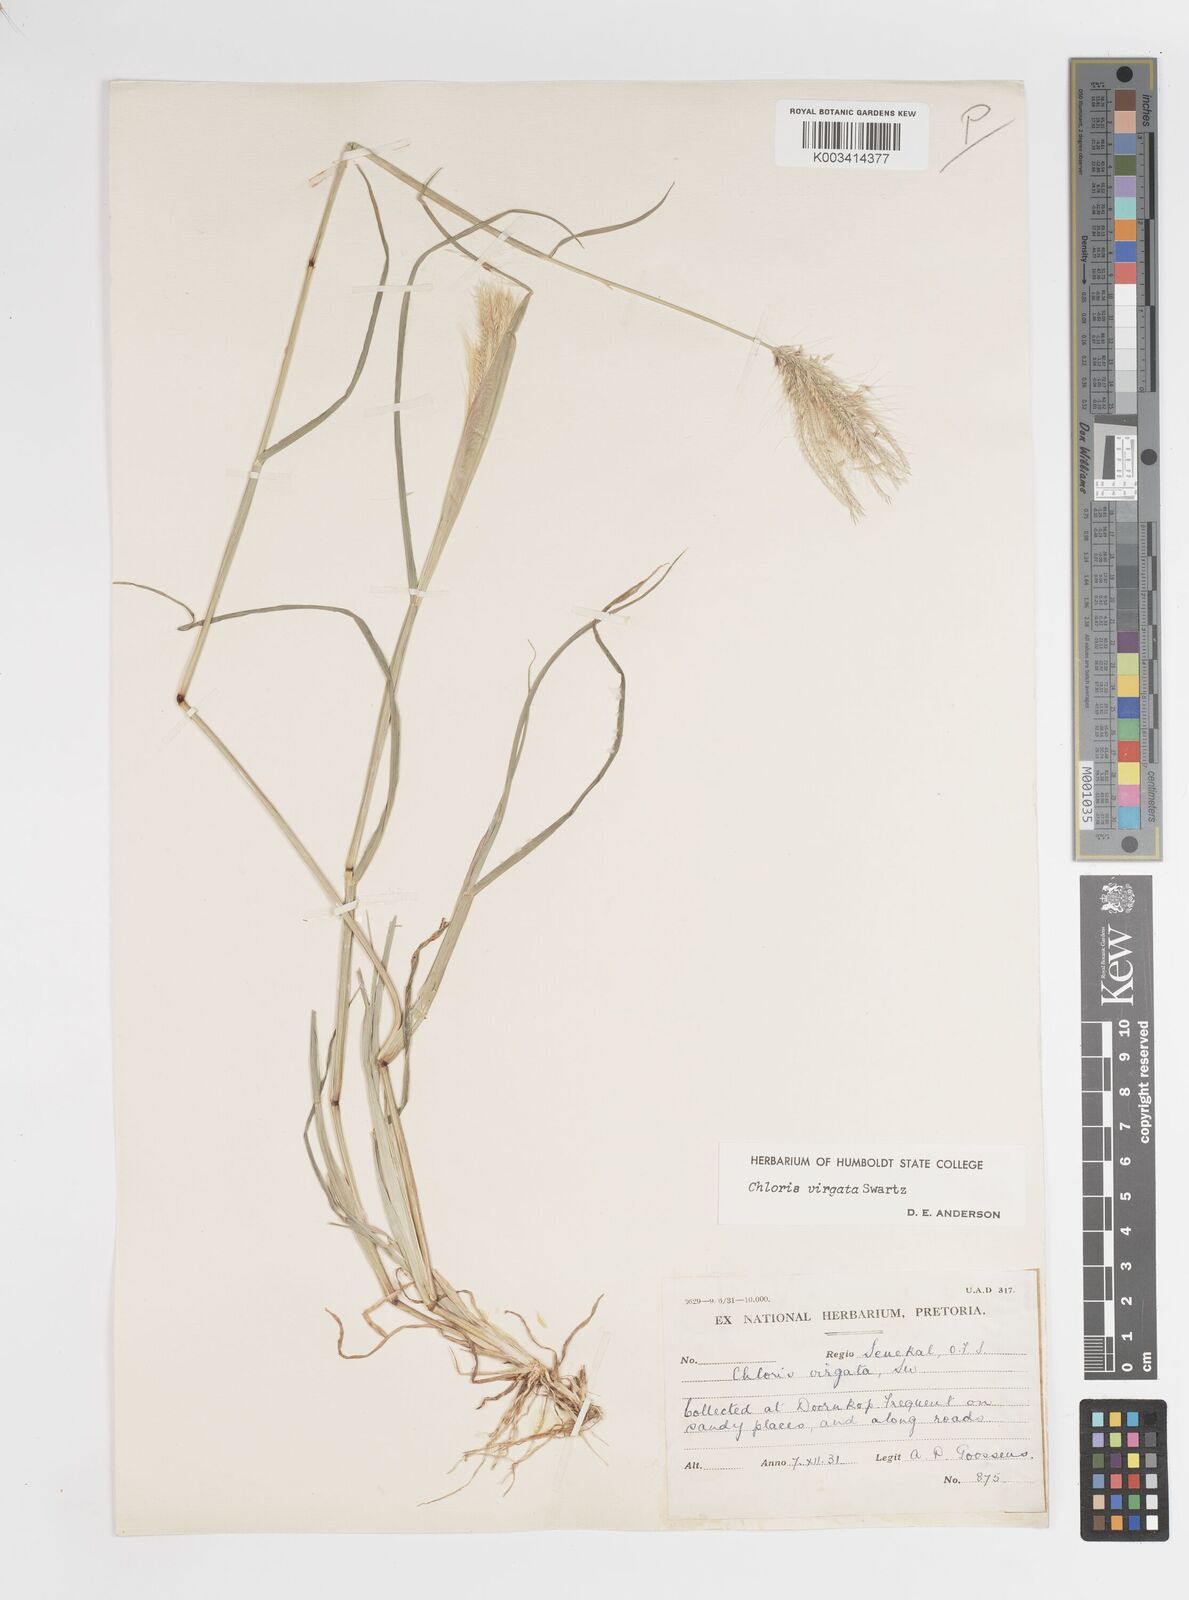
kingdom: Plantae
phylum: Tracheophyta
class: Liliopsida
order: Poales
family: Poaceae
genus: Chloris
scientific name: Chloris virgata
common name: Feathery rhodes-grass
